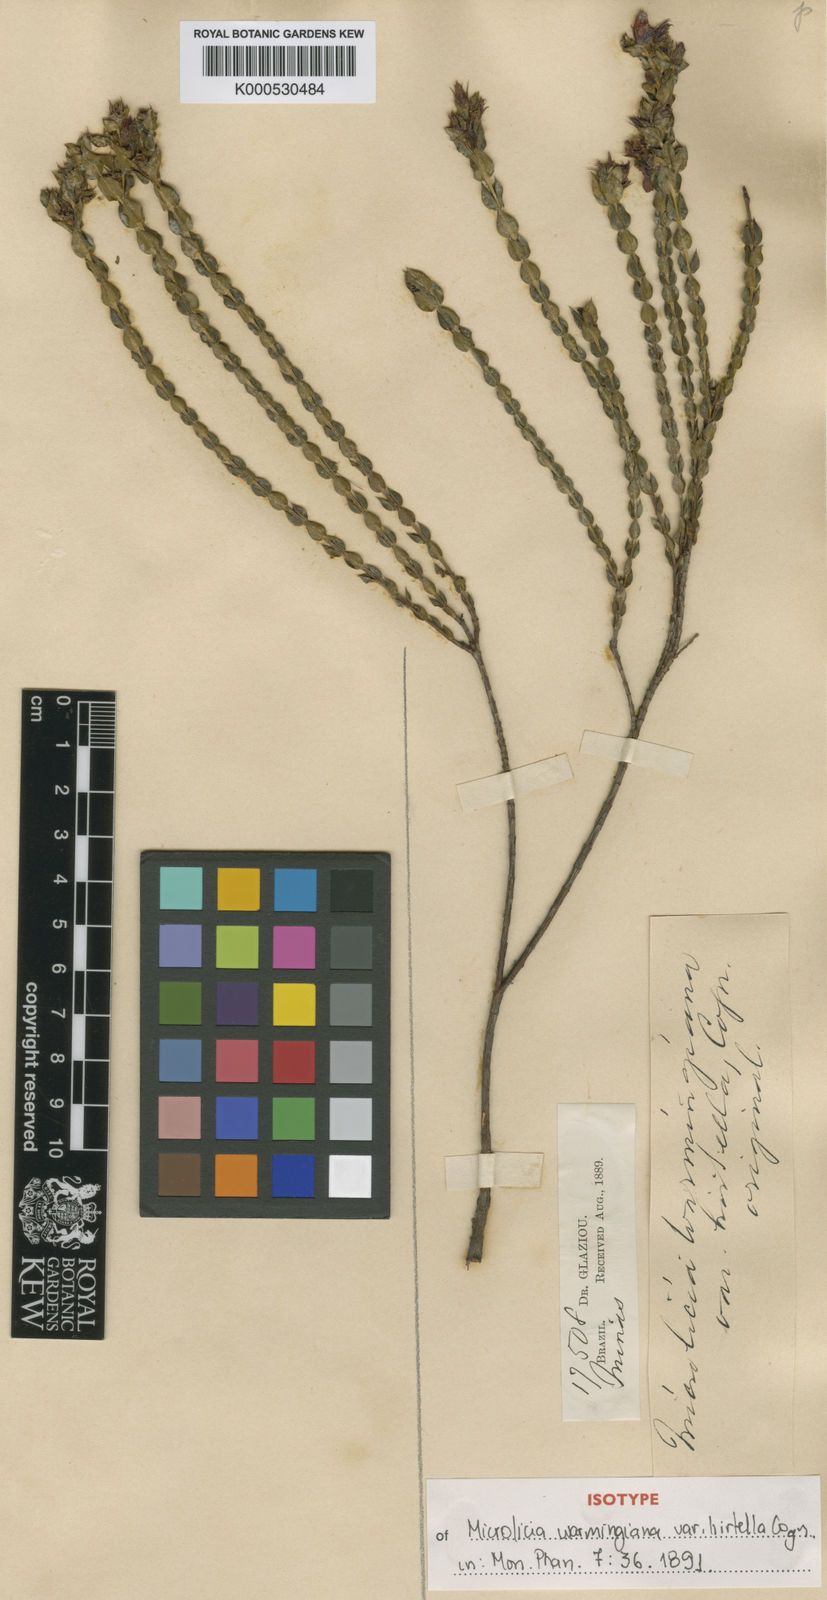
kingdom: Plantae
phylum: Tracheophyta
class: Magnoliopsida
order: Myrtales
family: Melastomataceae
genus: Microlicia
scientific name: Microlicia warmingiana
